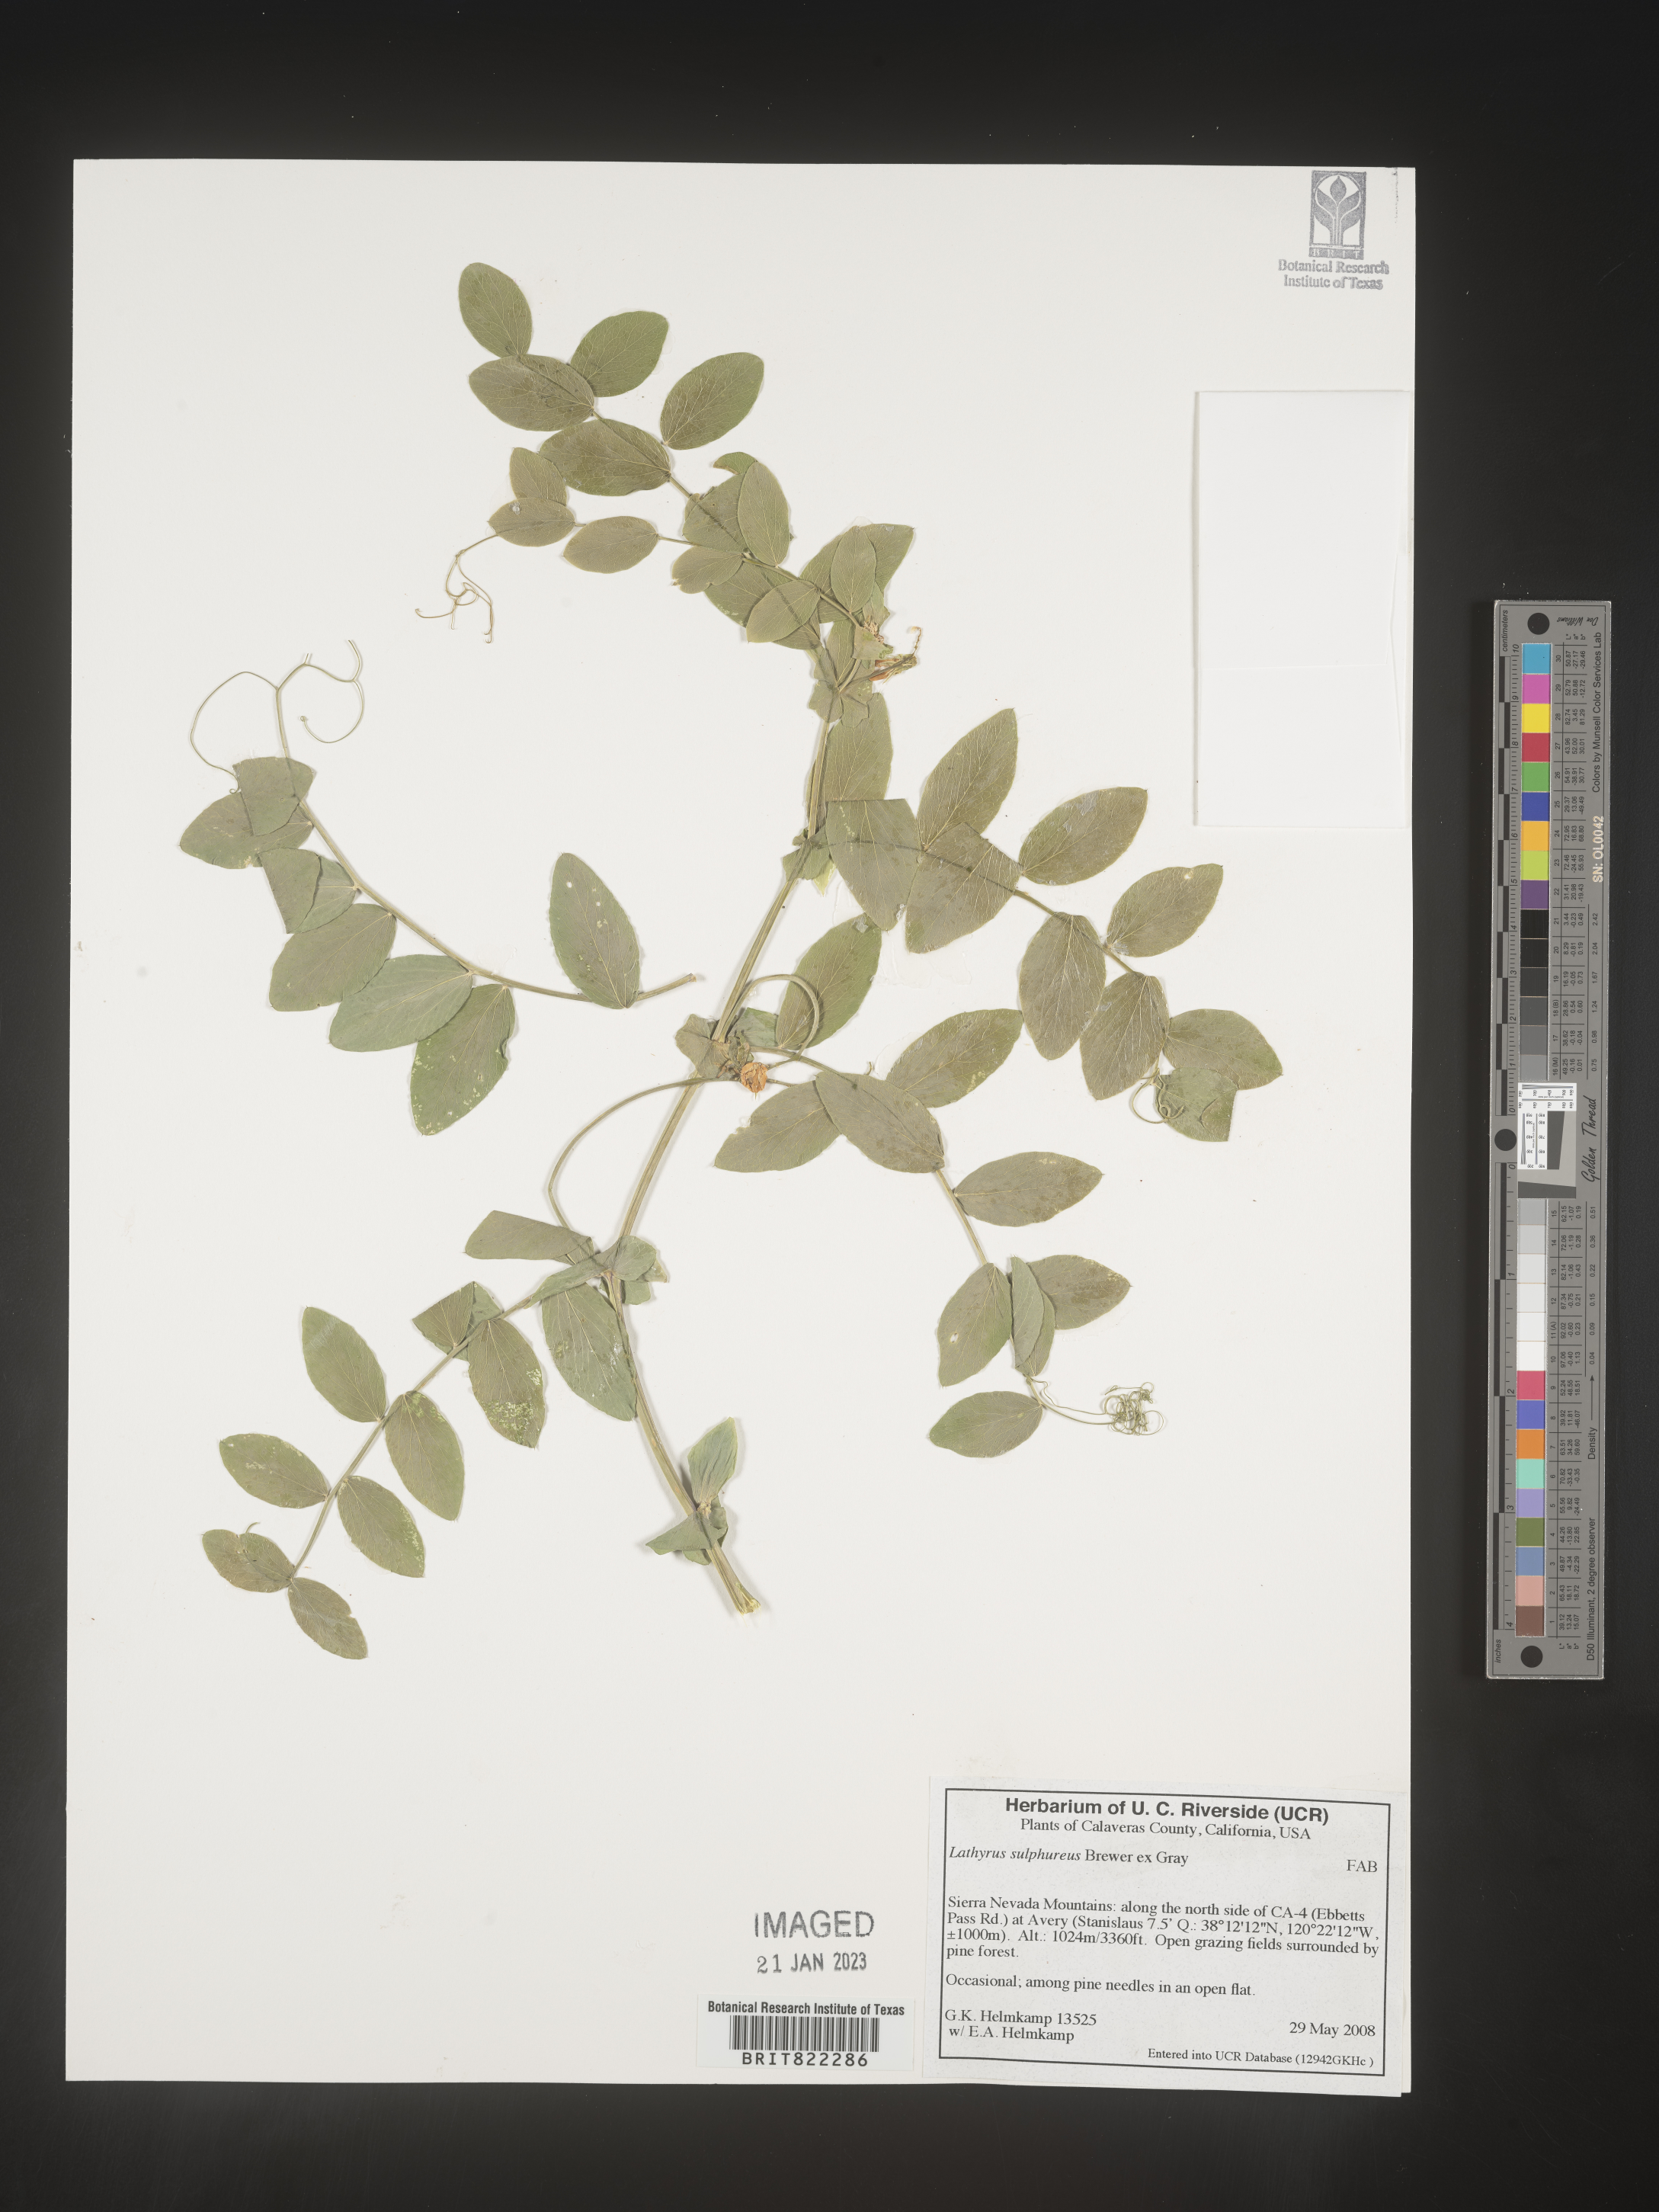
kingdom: Plantae
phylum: Tracheophyta
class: Magnoliopsida
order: Fabales
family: Fabaceae
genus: Lathyrus
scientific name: Lathyrus
